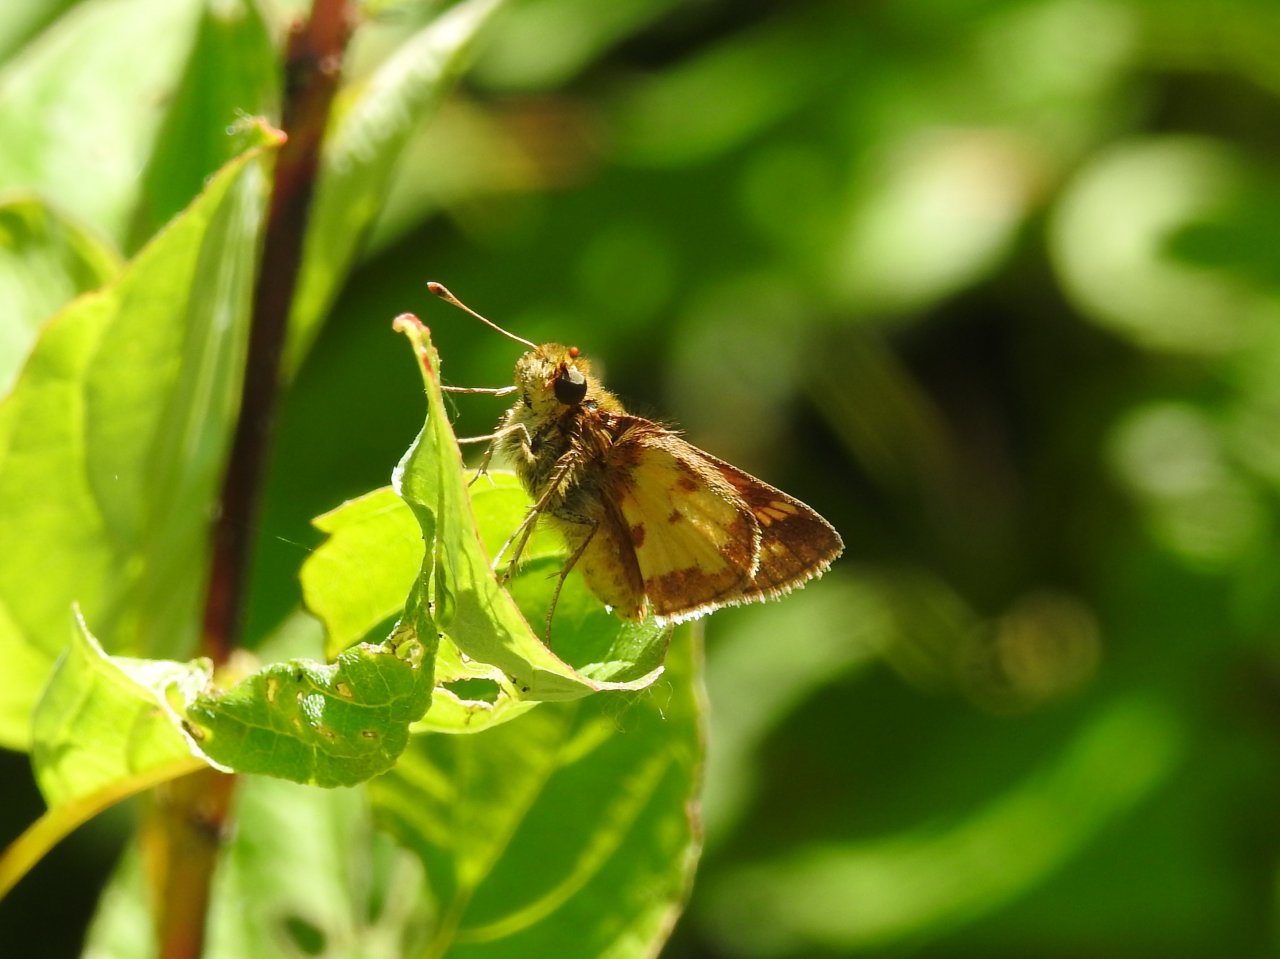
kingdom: Animalia
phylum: Arthropoda
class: Insecta
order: Lepidoptera
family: Hesperiidae
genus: Polites
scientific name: Polites coras
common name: Peck's Skipper
